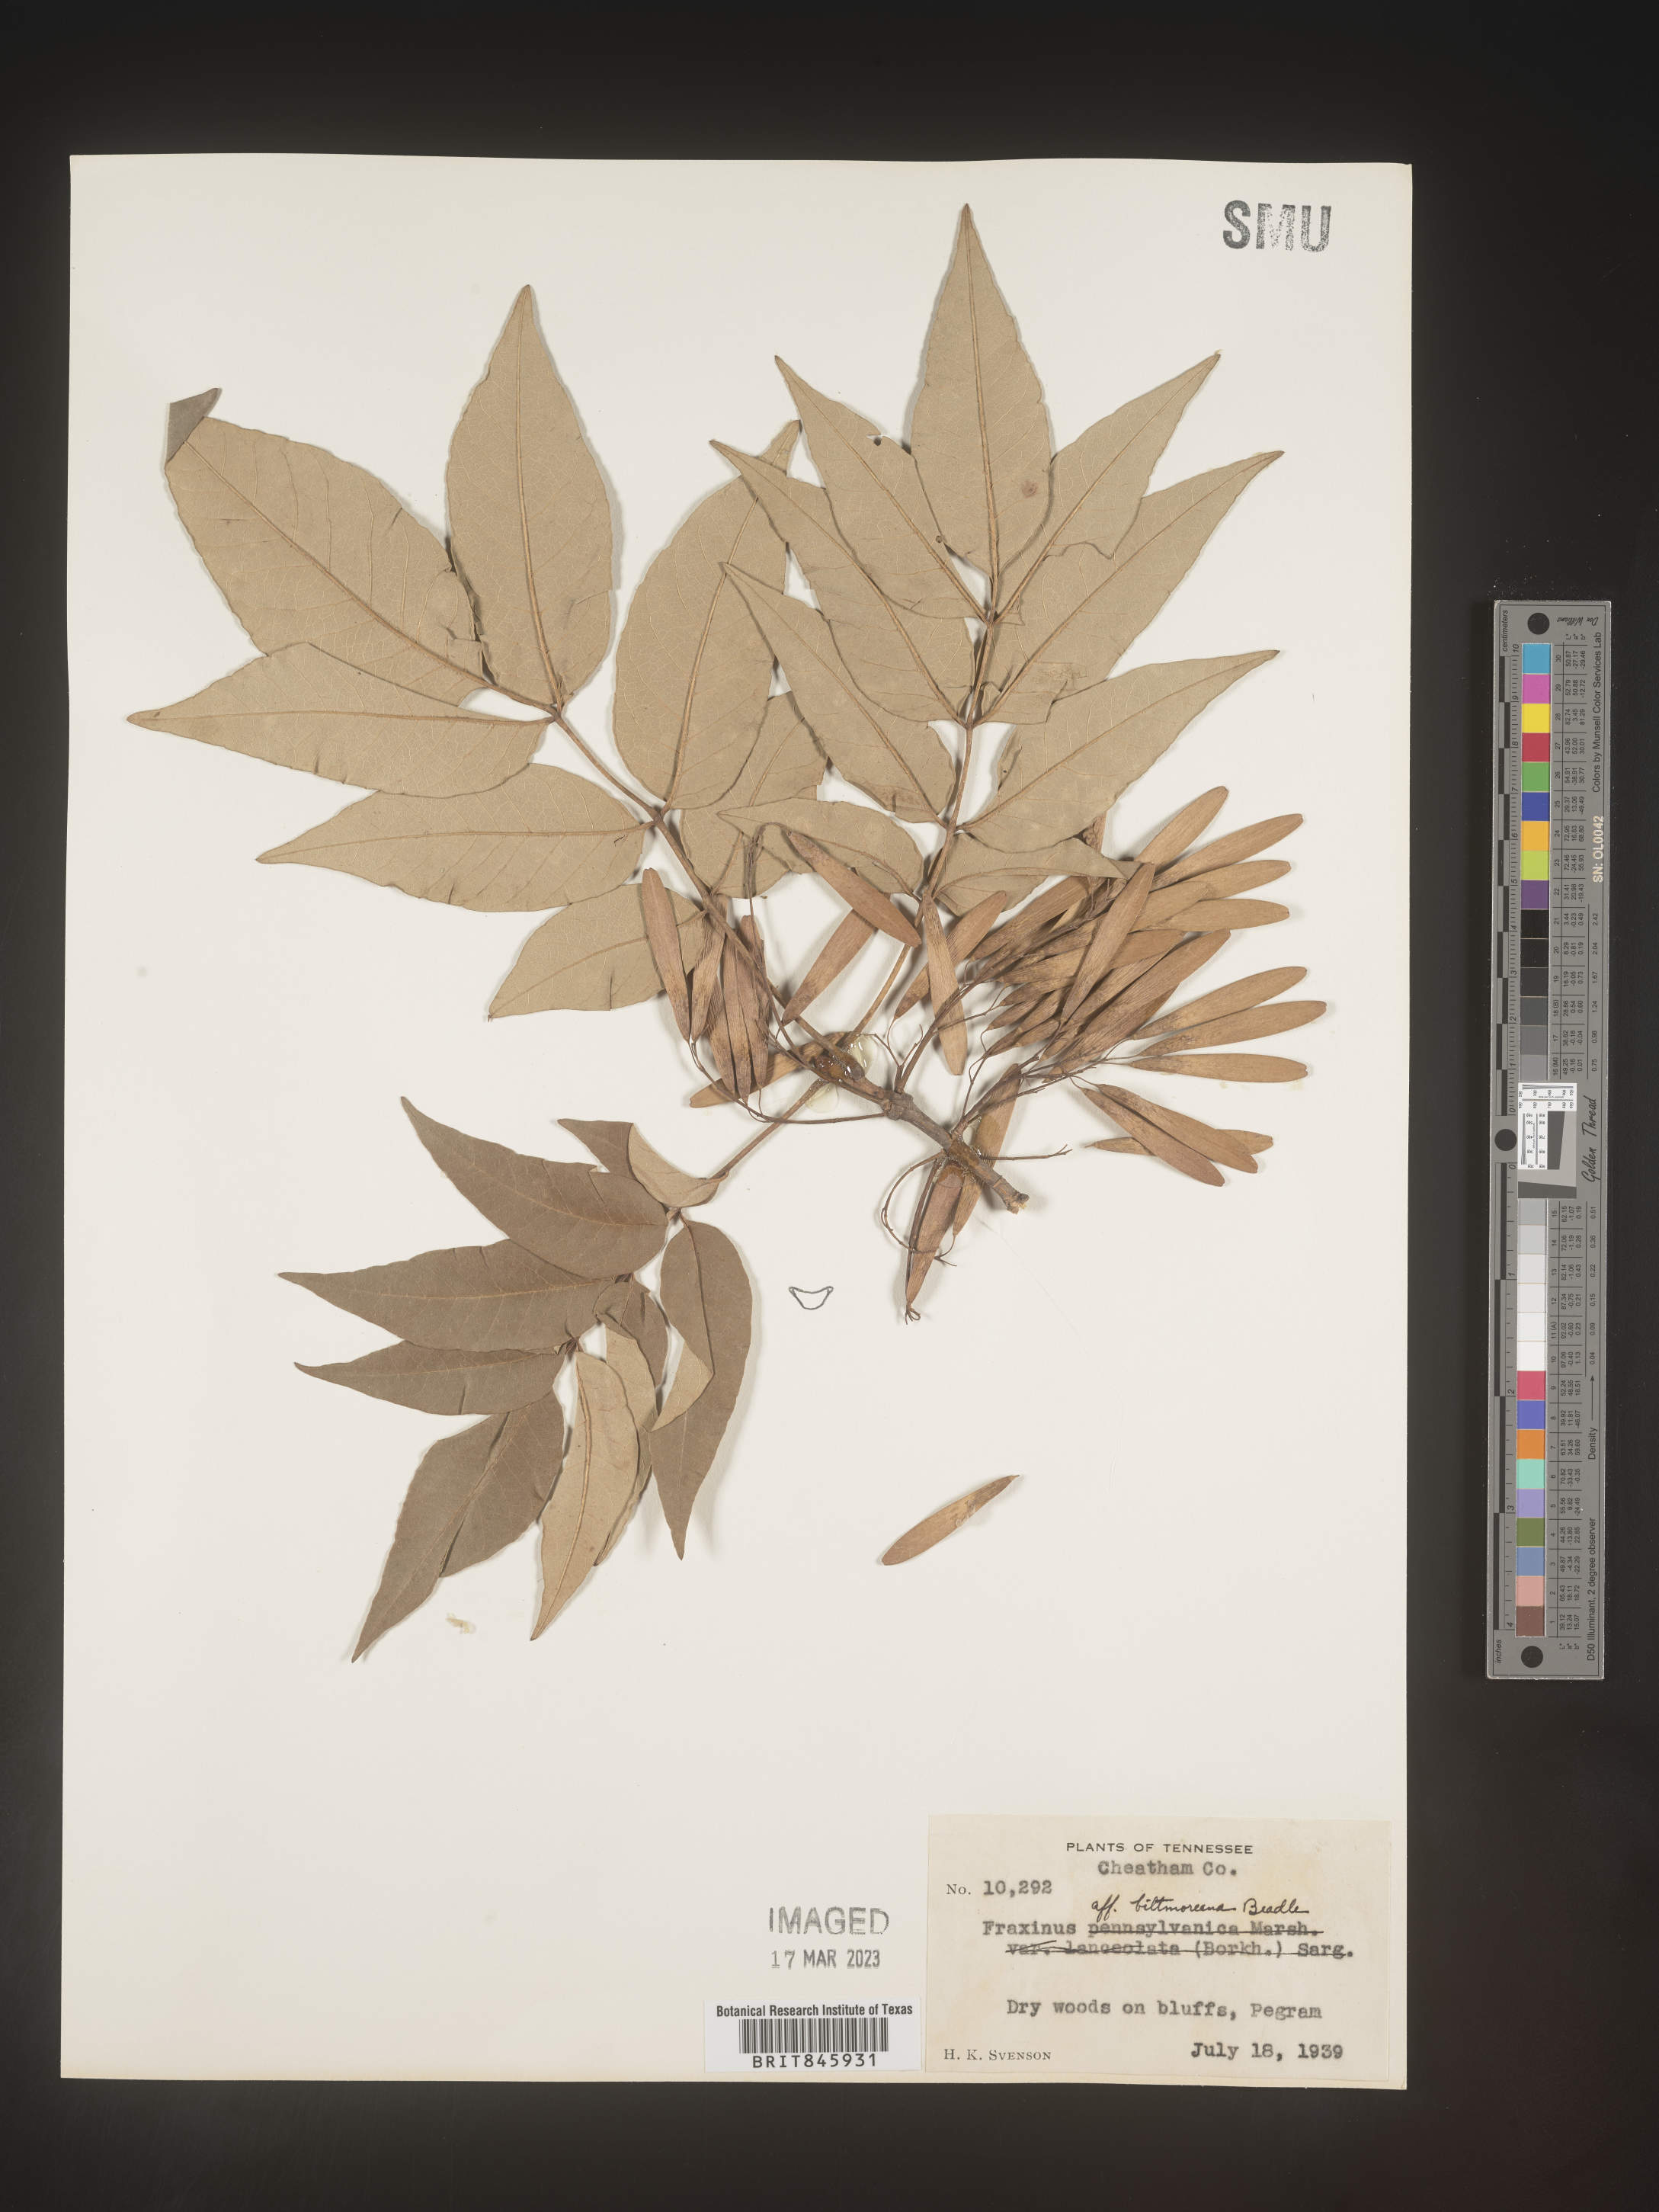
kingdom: Plantae
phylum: Tracheophyta
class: Magnoliopsida
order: Lamiales
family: Oleaceae
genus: Fraxinus
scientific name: Fraxinus americana
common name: White ash
